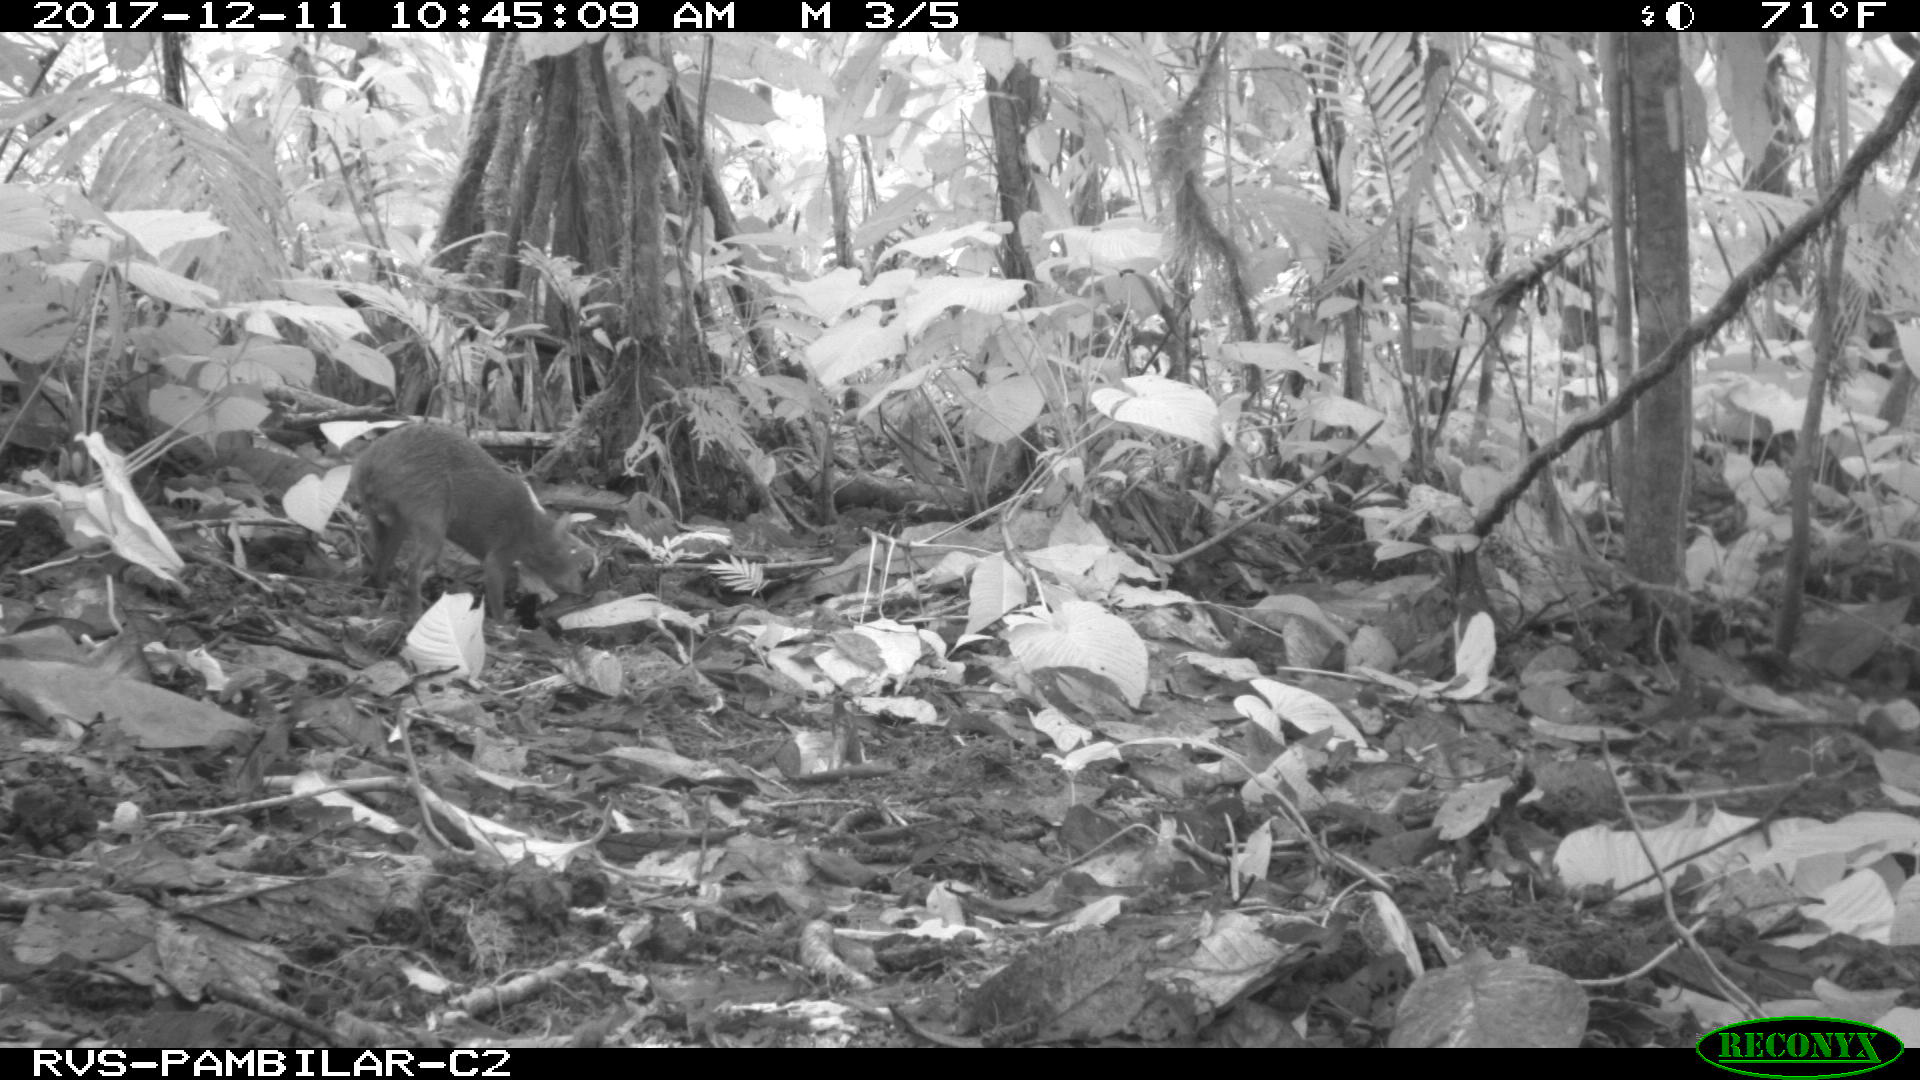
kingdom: Animalia
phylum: Chordata
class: Mammalia
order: Rodentia
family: Dasyproctidae
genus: Dasyprocta
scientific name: Dasyprocta punctata
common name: Central american agouti
